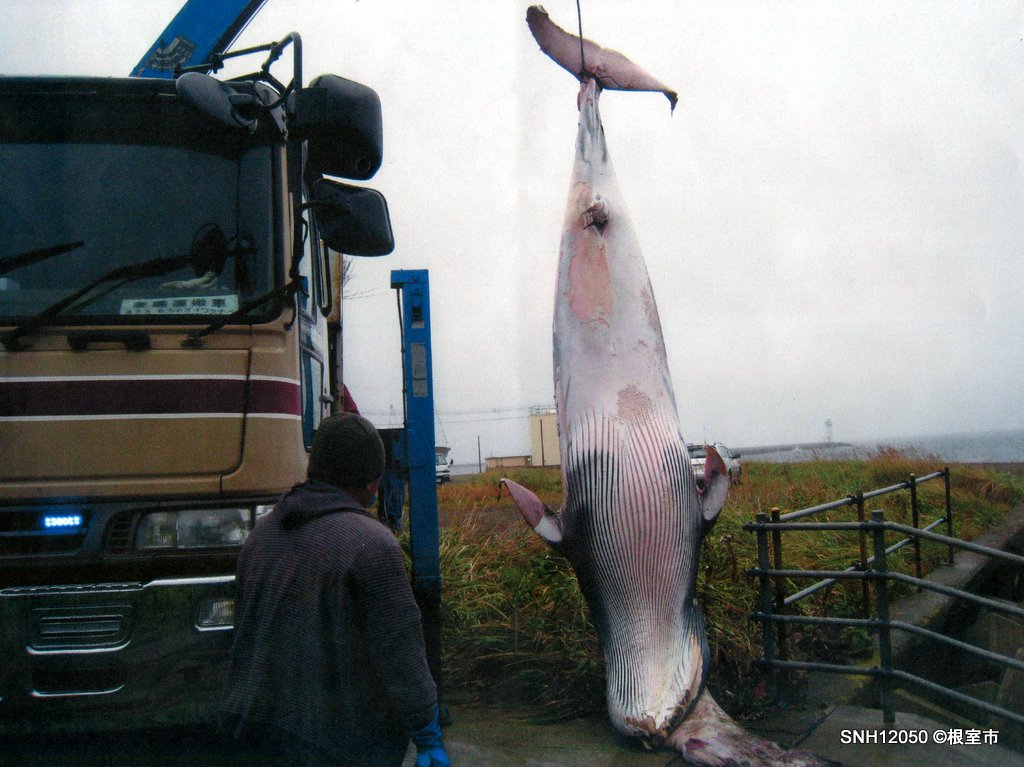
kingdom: Animalia
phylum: Chordata
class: Mammalia
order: Cetacea
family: Balaenopteridae
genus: Balaenoptera
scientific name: Balaenoptera acutorostrata
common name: Minke whale
